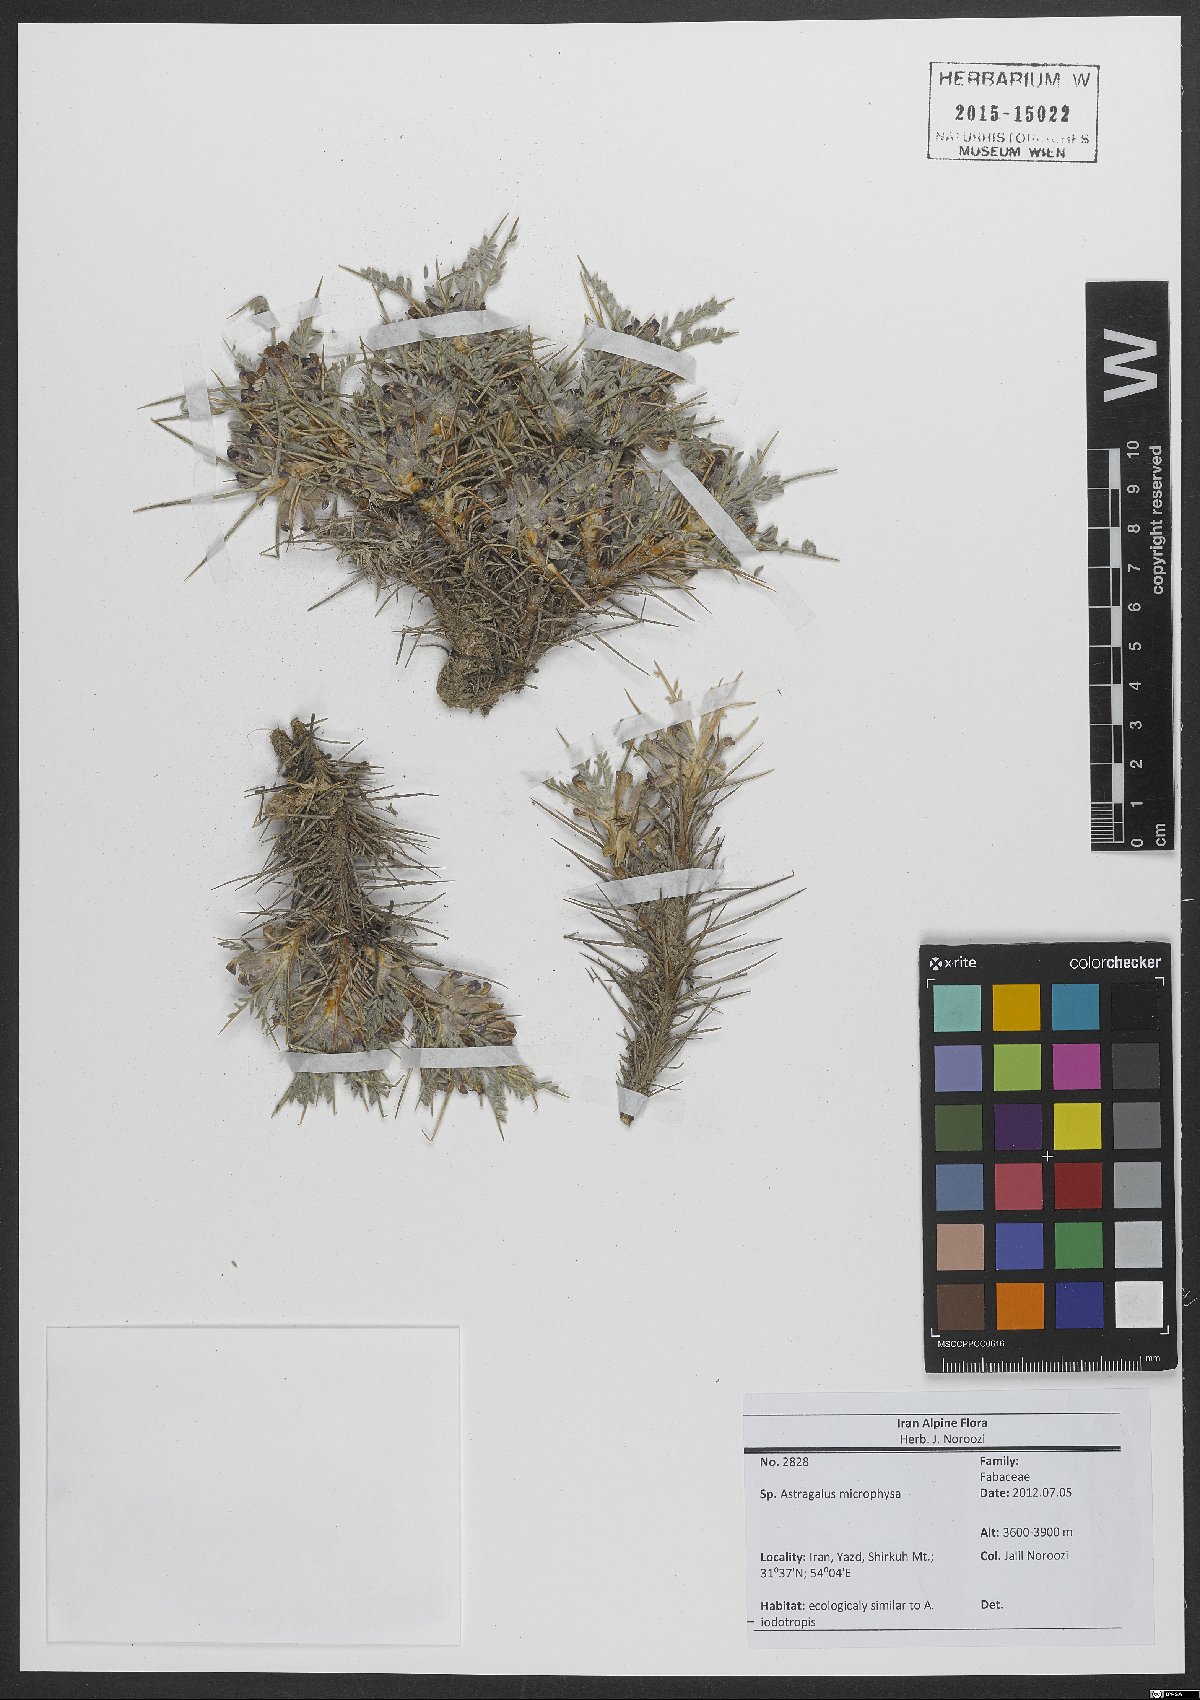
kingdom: Plantae
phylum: Tracheophyta
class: Magnoliopsida
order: Fabales
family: Fabaceae
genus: Astragalus
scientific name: Astragalus microphysa
